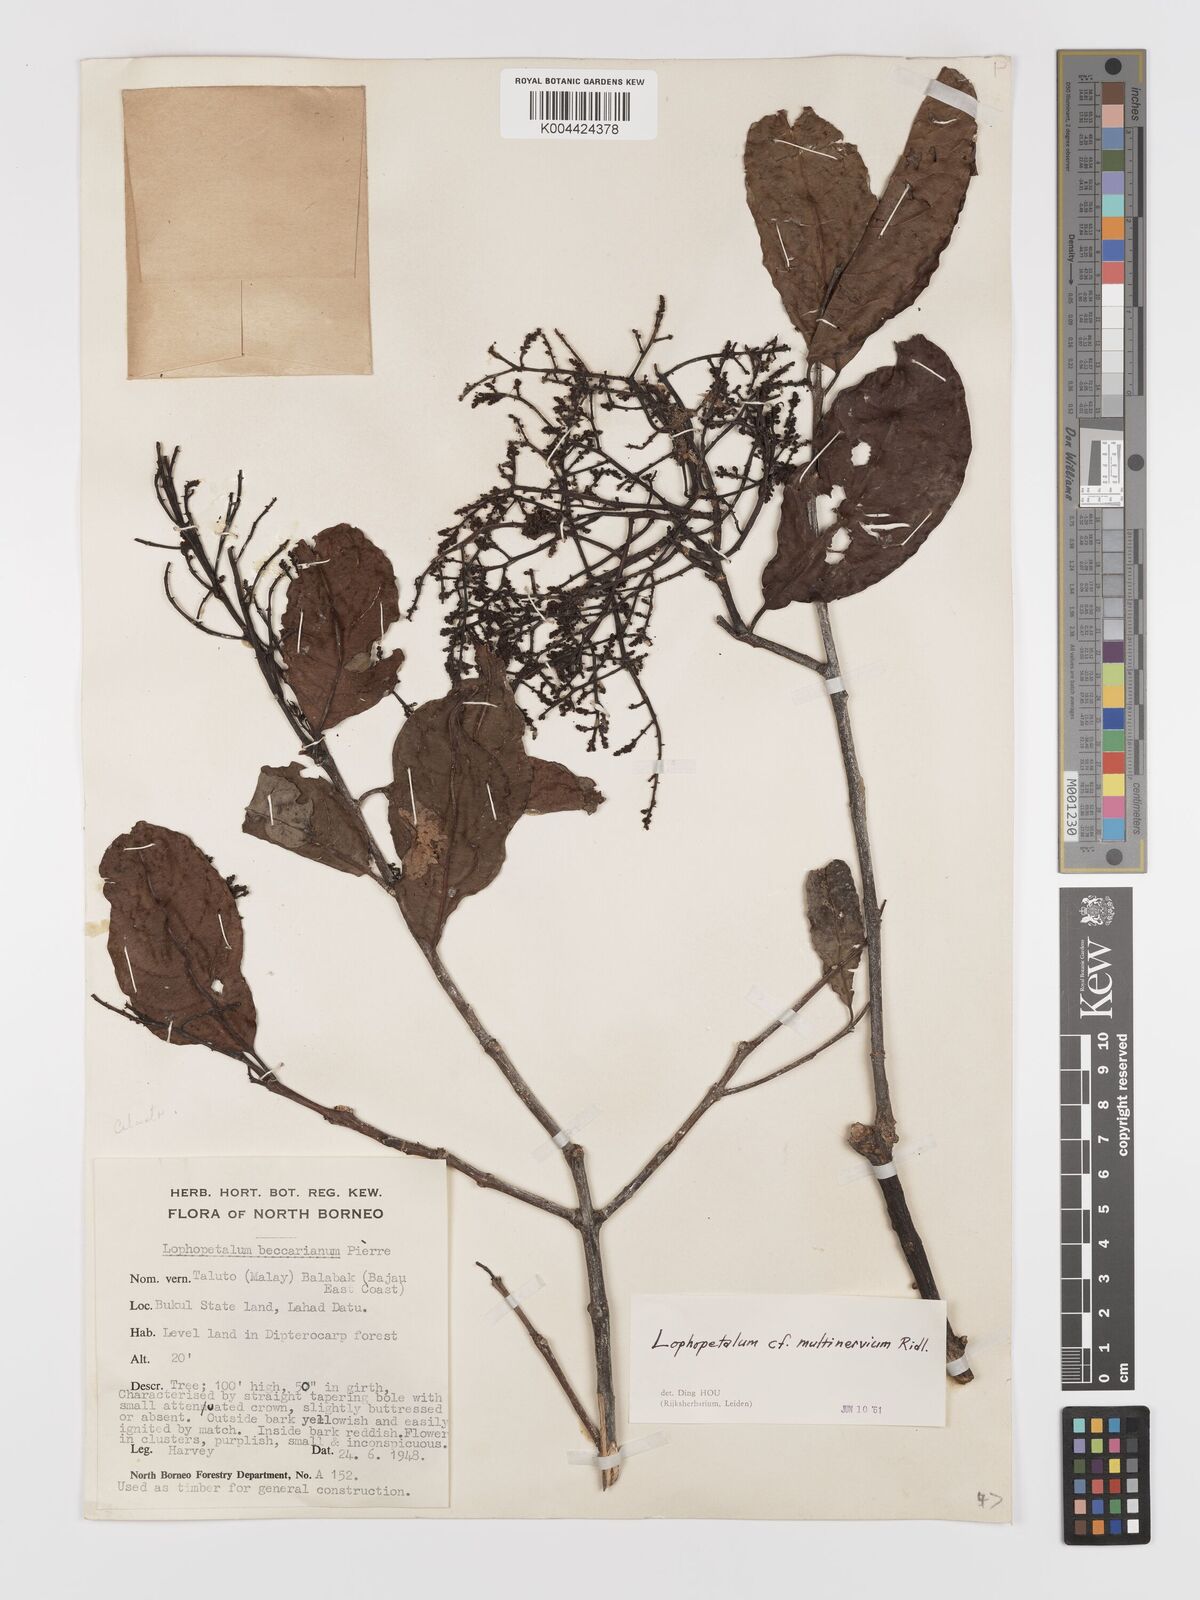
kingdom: Plantae
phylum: Tracheophyta
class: Magnoliopsida
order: Celastrales
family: Celastraceae
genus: Lophopetalum
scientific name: Lophopetalum multinervium
